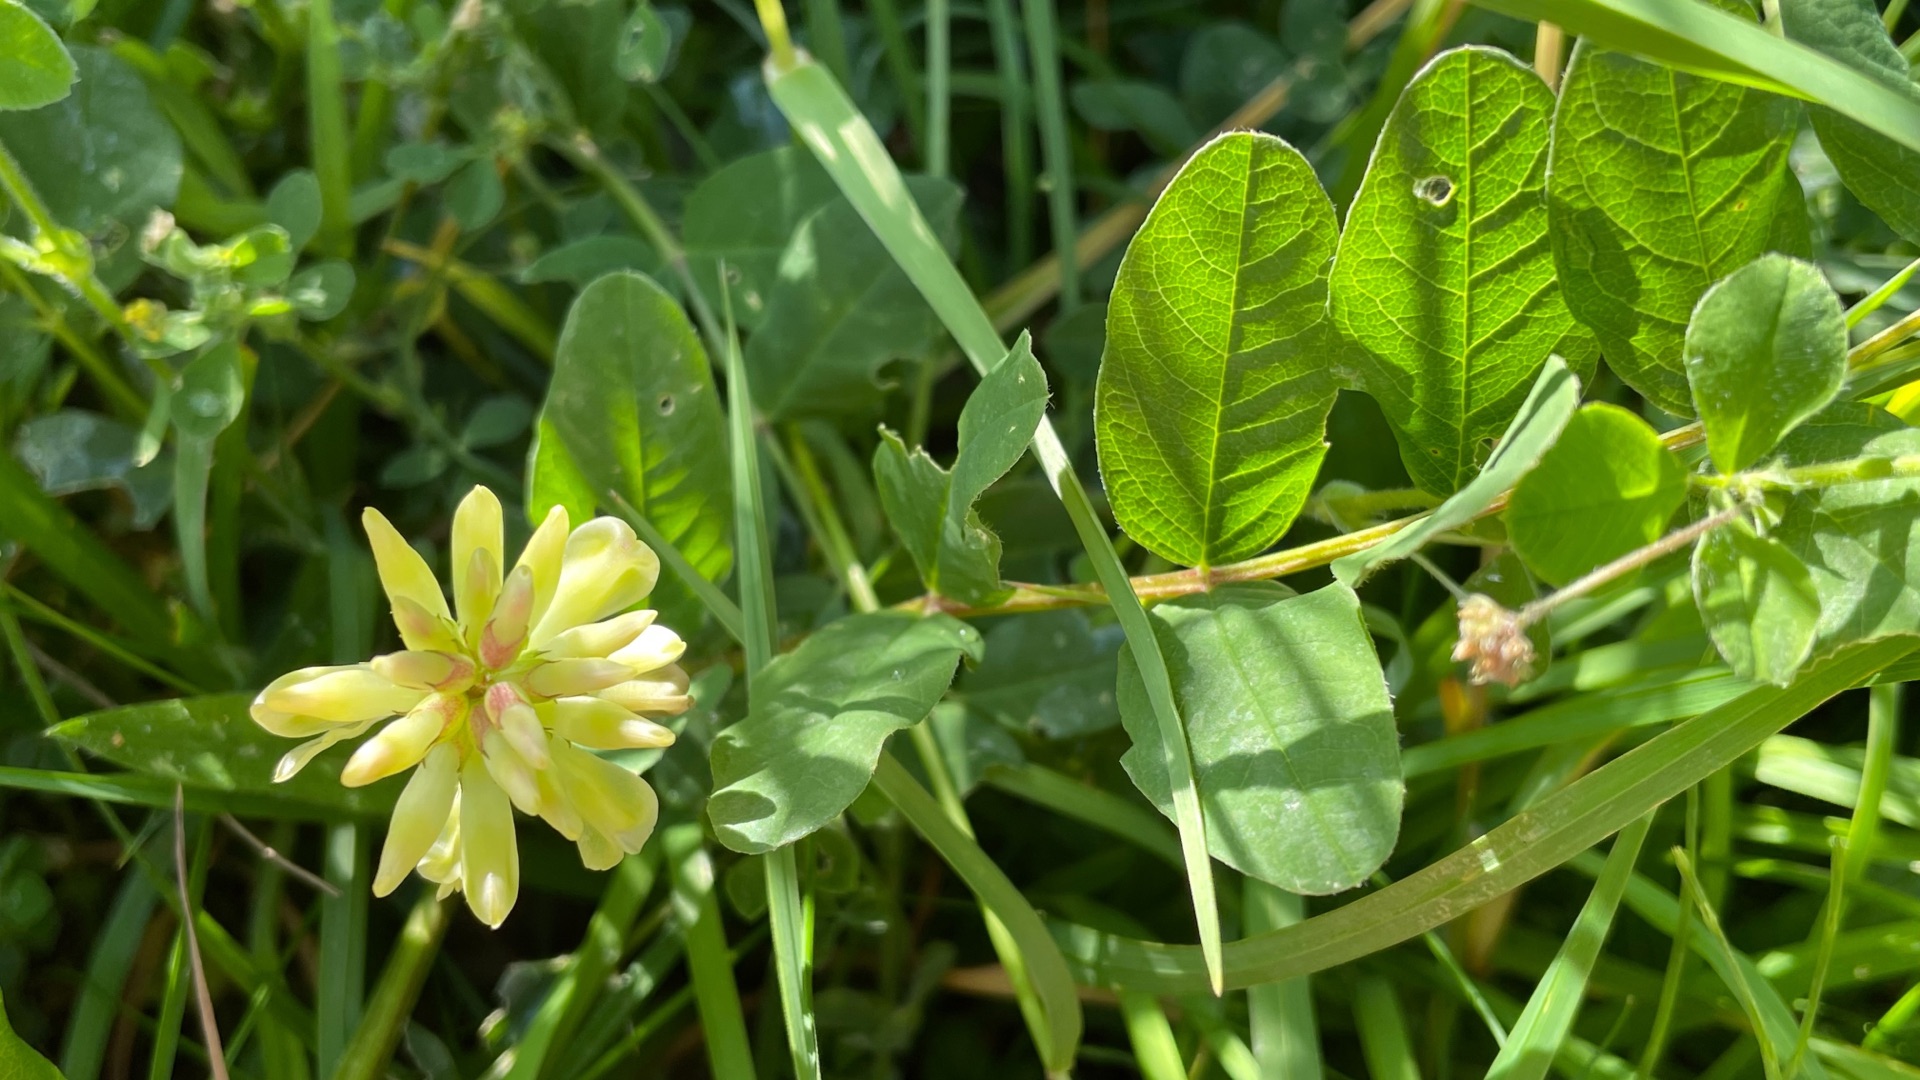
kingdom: Plantae
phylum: Tracheophyta
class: Magnoliopsida
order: Fabales
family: Fabaceae
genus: Astragalus
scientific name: Astragalus glycyphyllos
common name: Sød astragel
